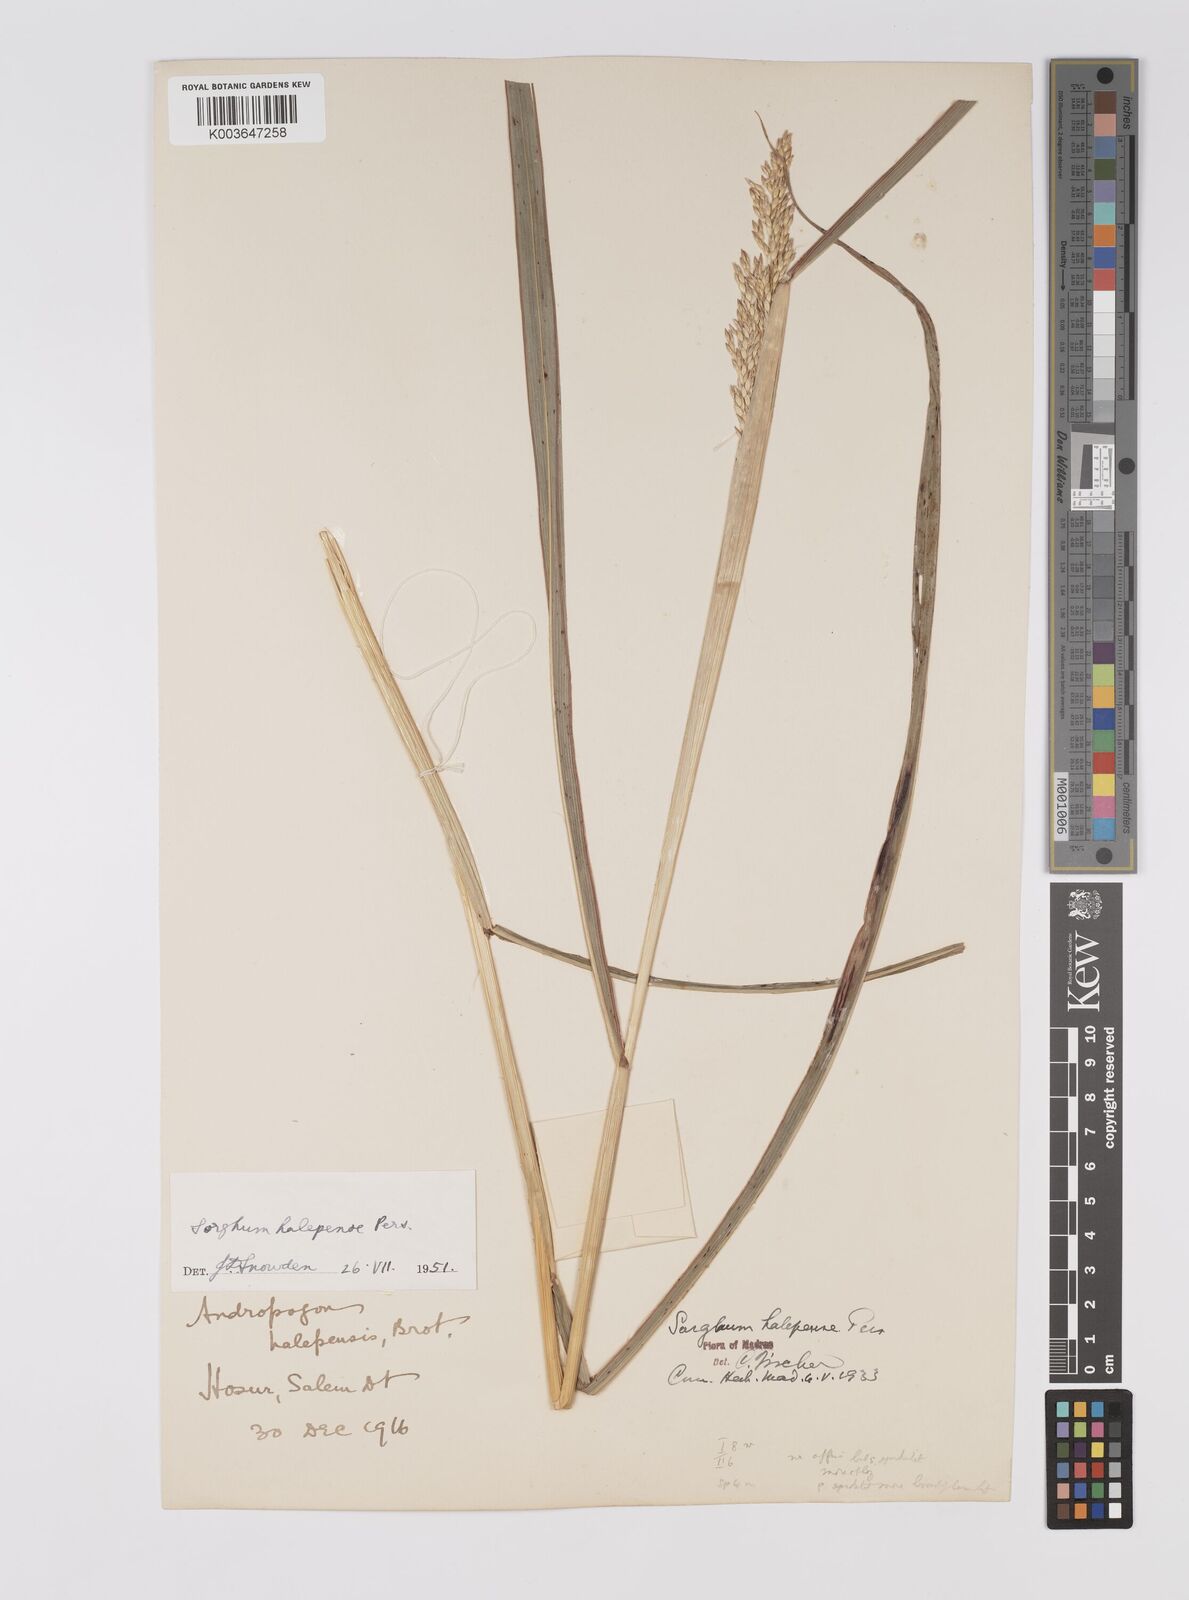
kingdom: Plantae
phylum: Tracheophyta
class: Liliopsida
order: Poales
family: Poaceae
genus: Sorghum
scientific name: Sorghum halepense
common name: Johnson-grass
